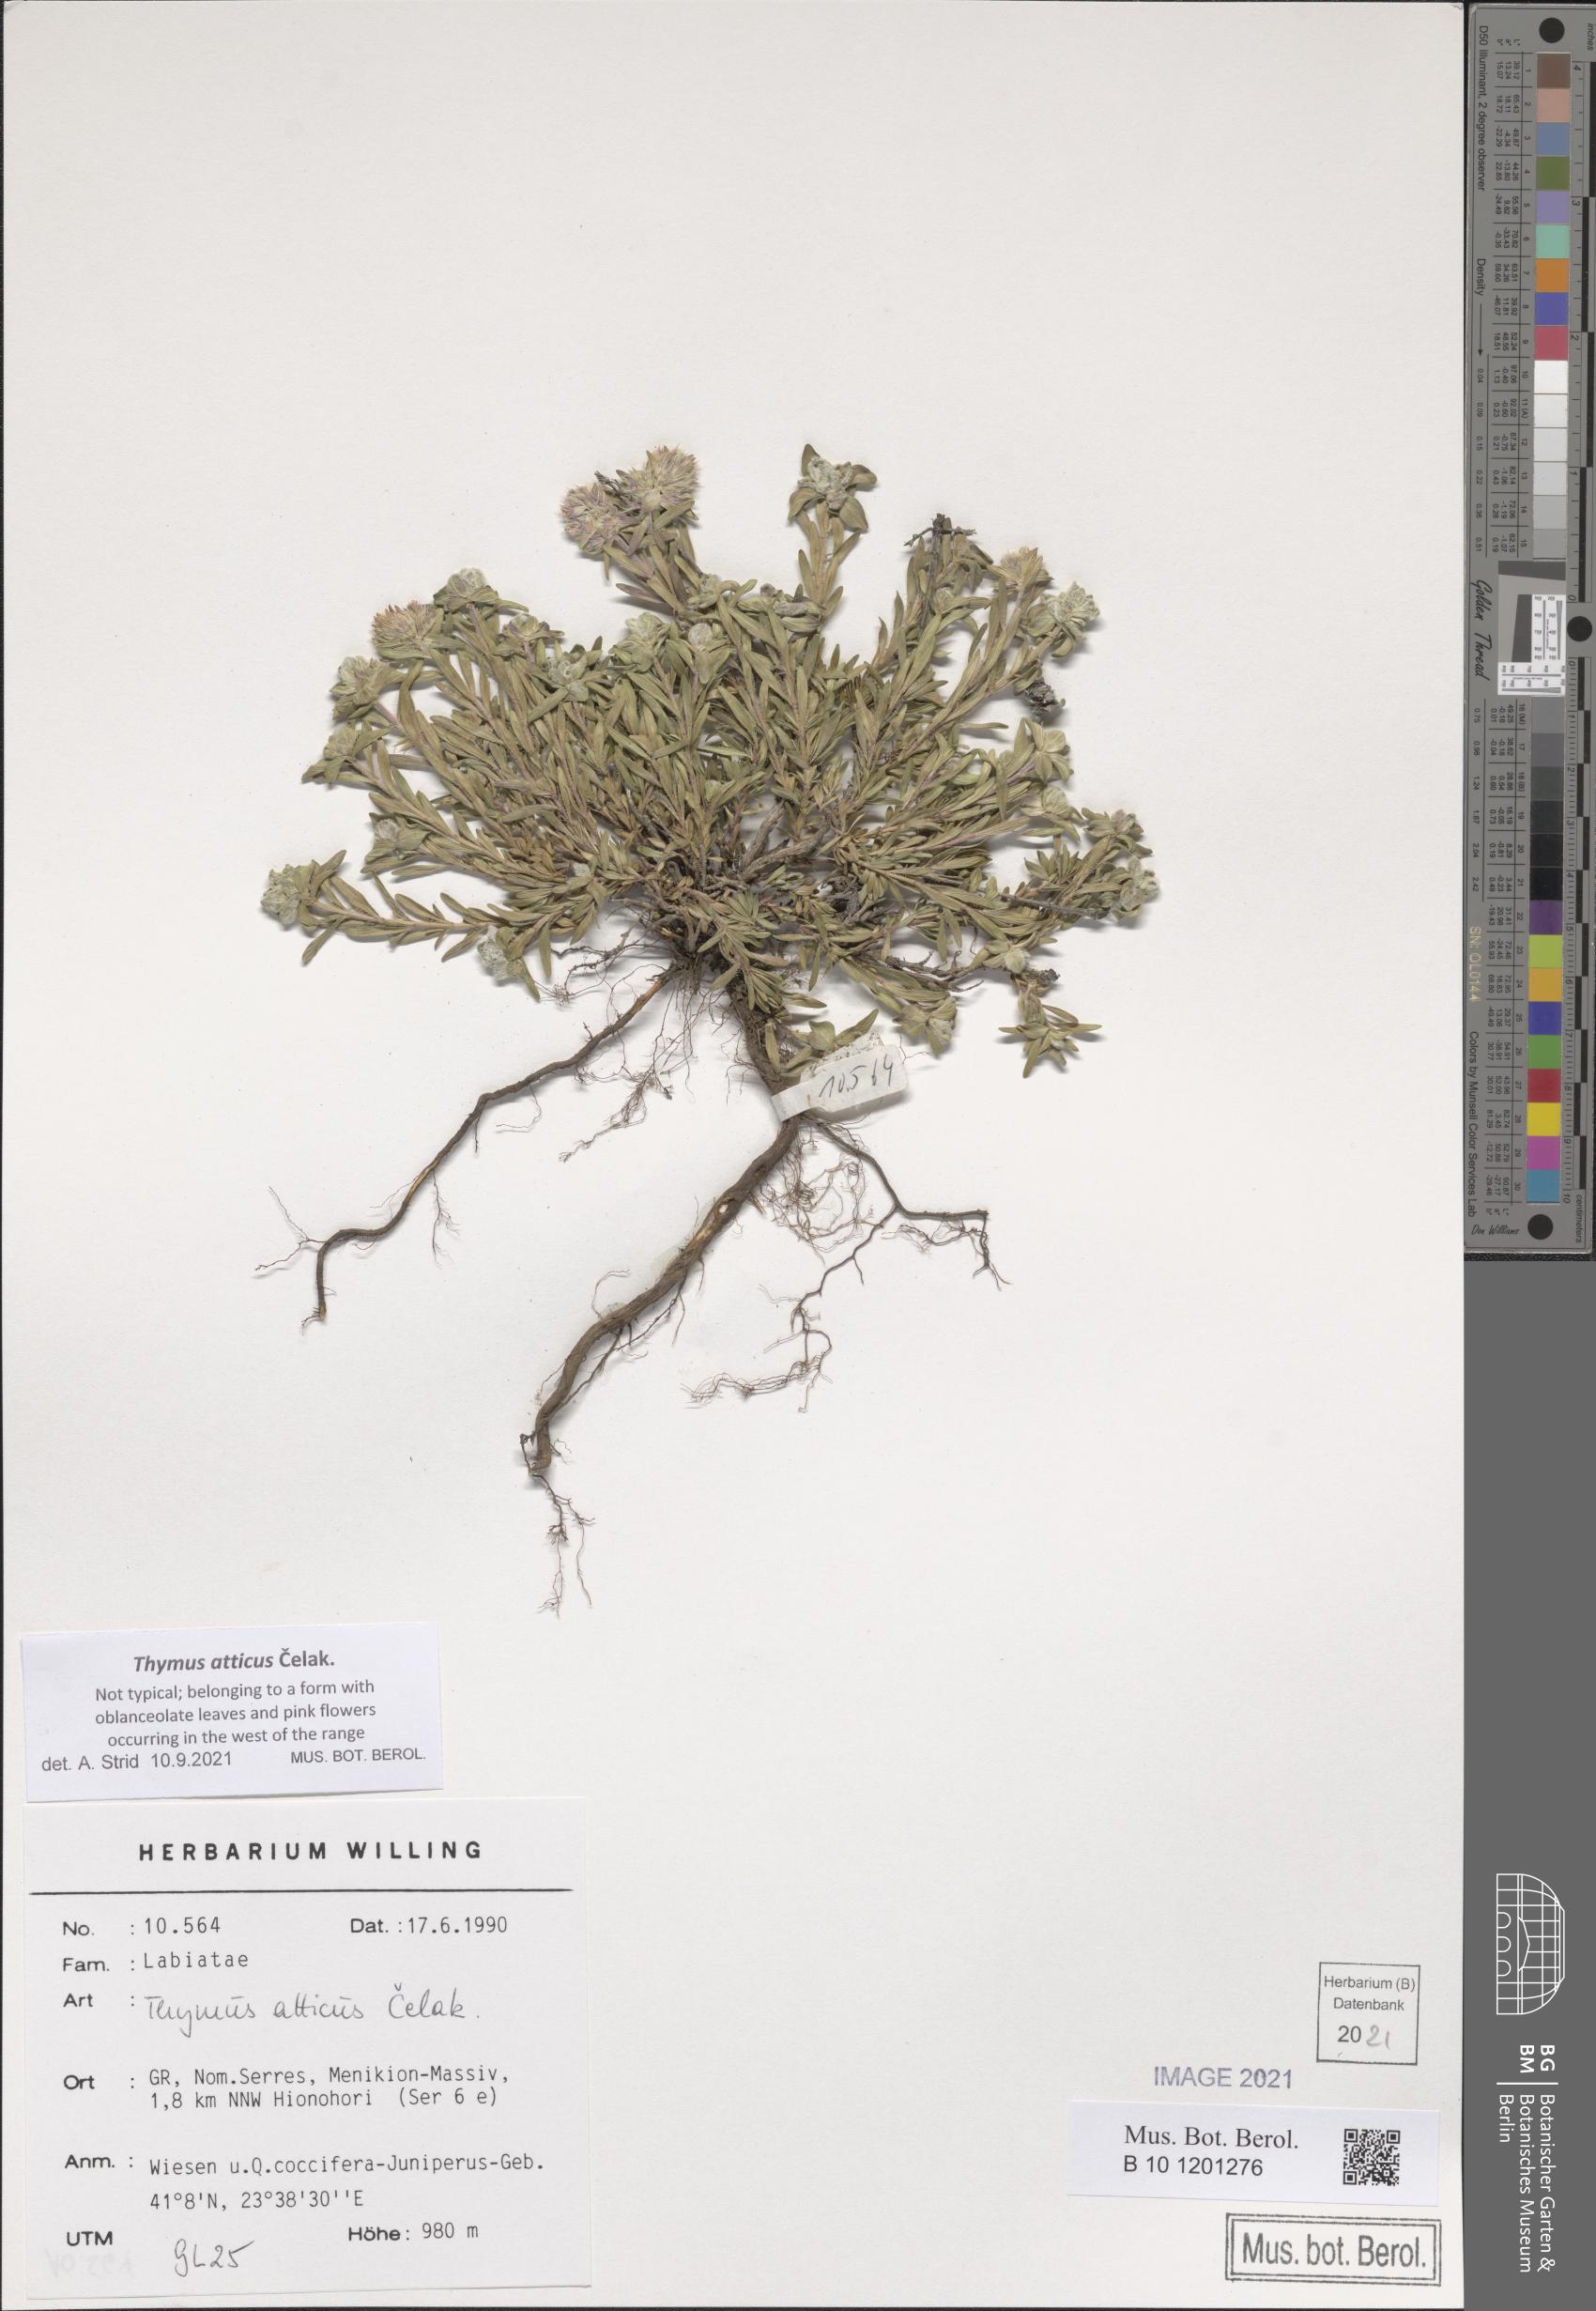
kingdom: Plantae
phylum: Tracheophyta
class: Magnoliopsida
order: Lamiales
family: Lamiaceae
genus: Thymus
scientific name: Thymus atticus
